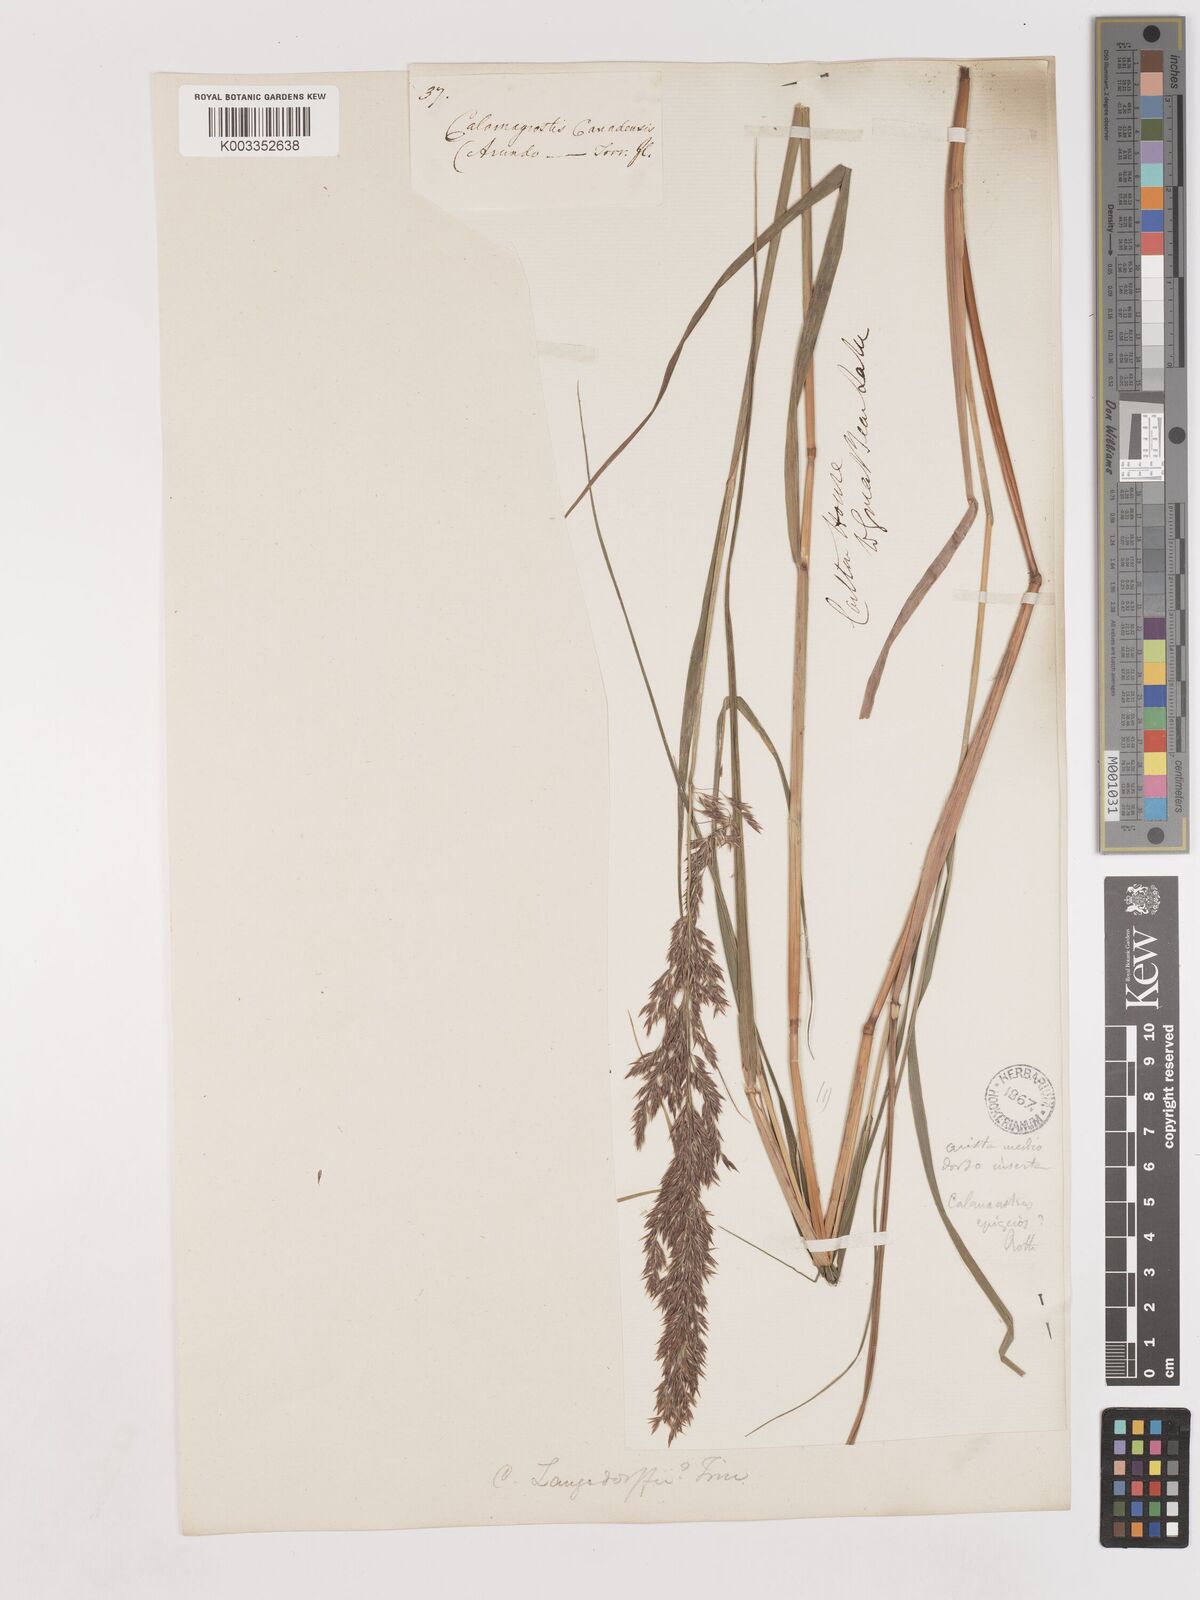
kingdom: Plantae
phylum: Tracheophyta
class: Liliopsida
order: Poales
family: Poaceae
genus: Calamagrostis
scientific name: Calamagrostis canadensis
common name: Canada bluejoint
